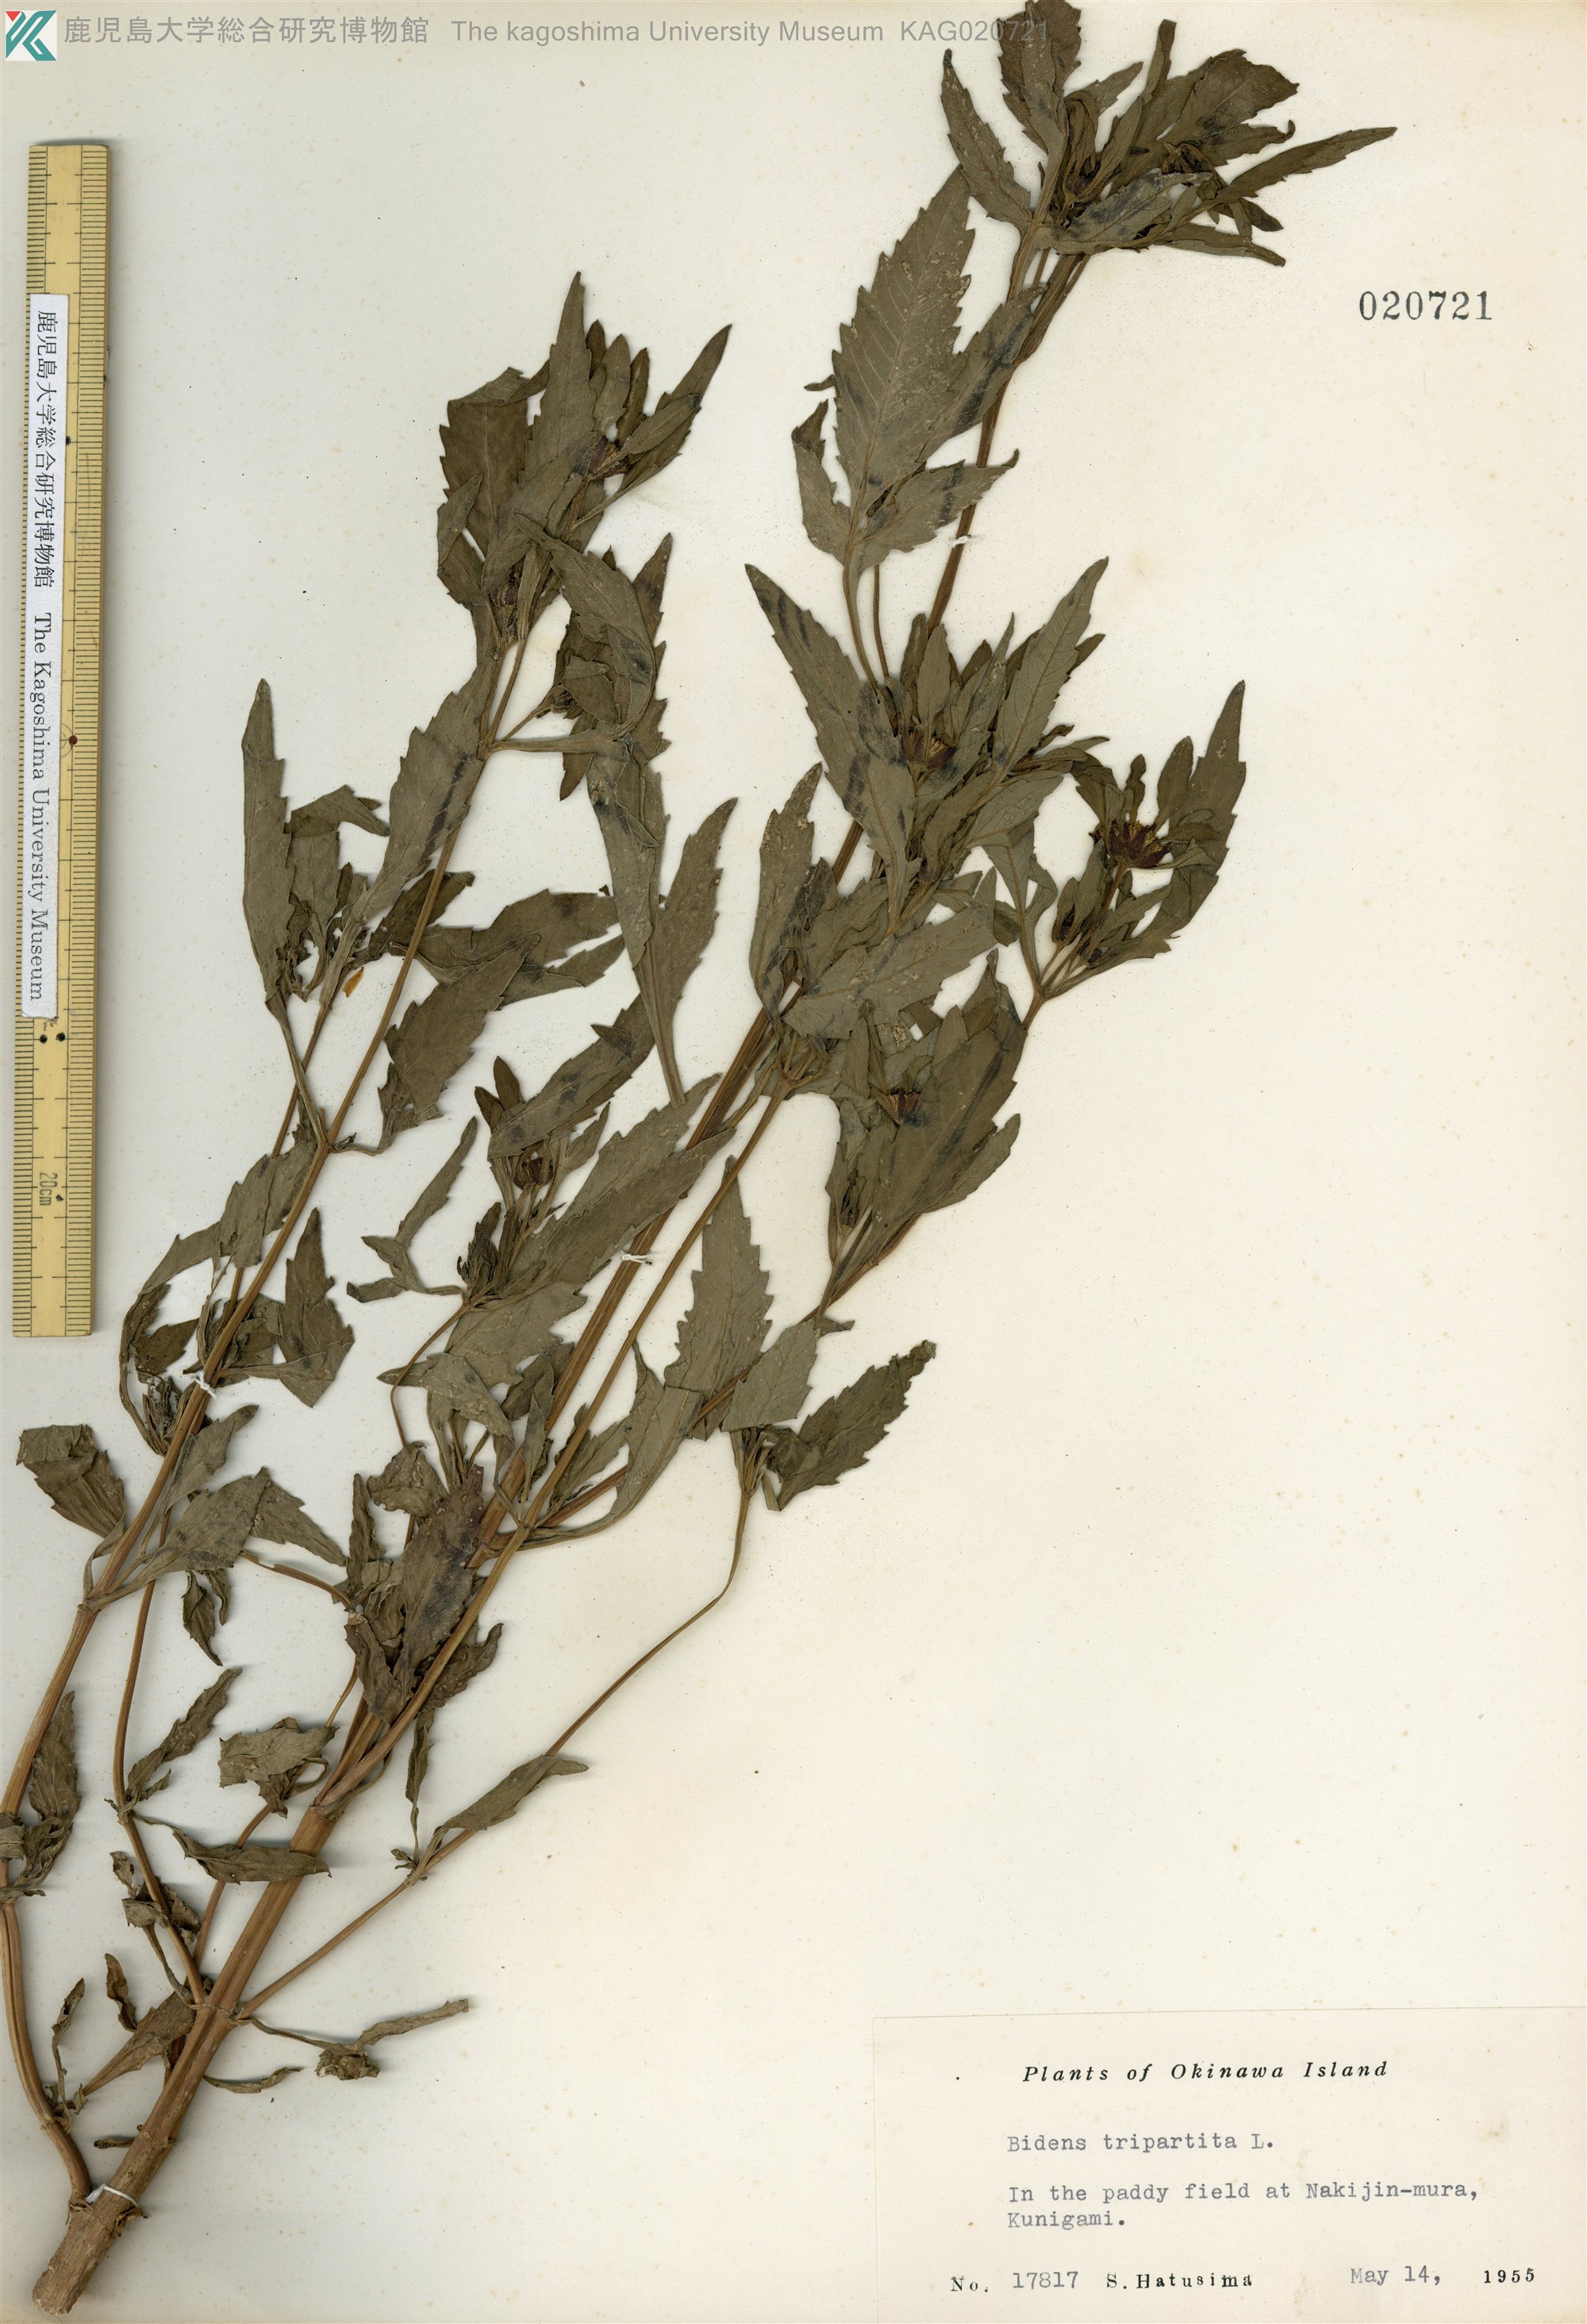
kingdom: Plantae
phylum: Tracheophyta
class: Magnoliopsida
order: Asterales
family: Asteraceae
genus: Bidens
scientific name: Bidens tripartita
